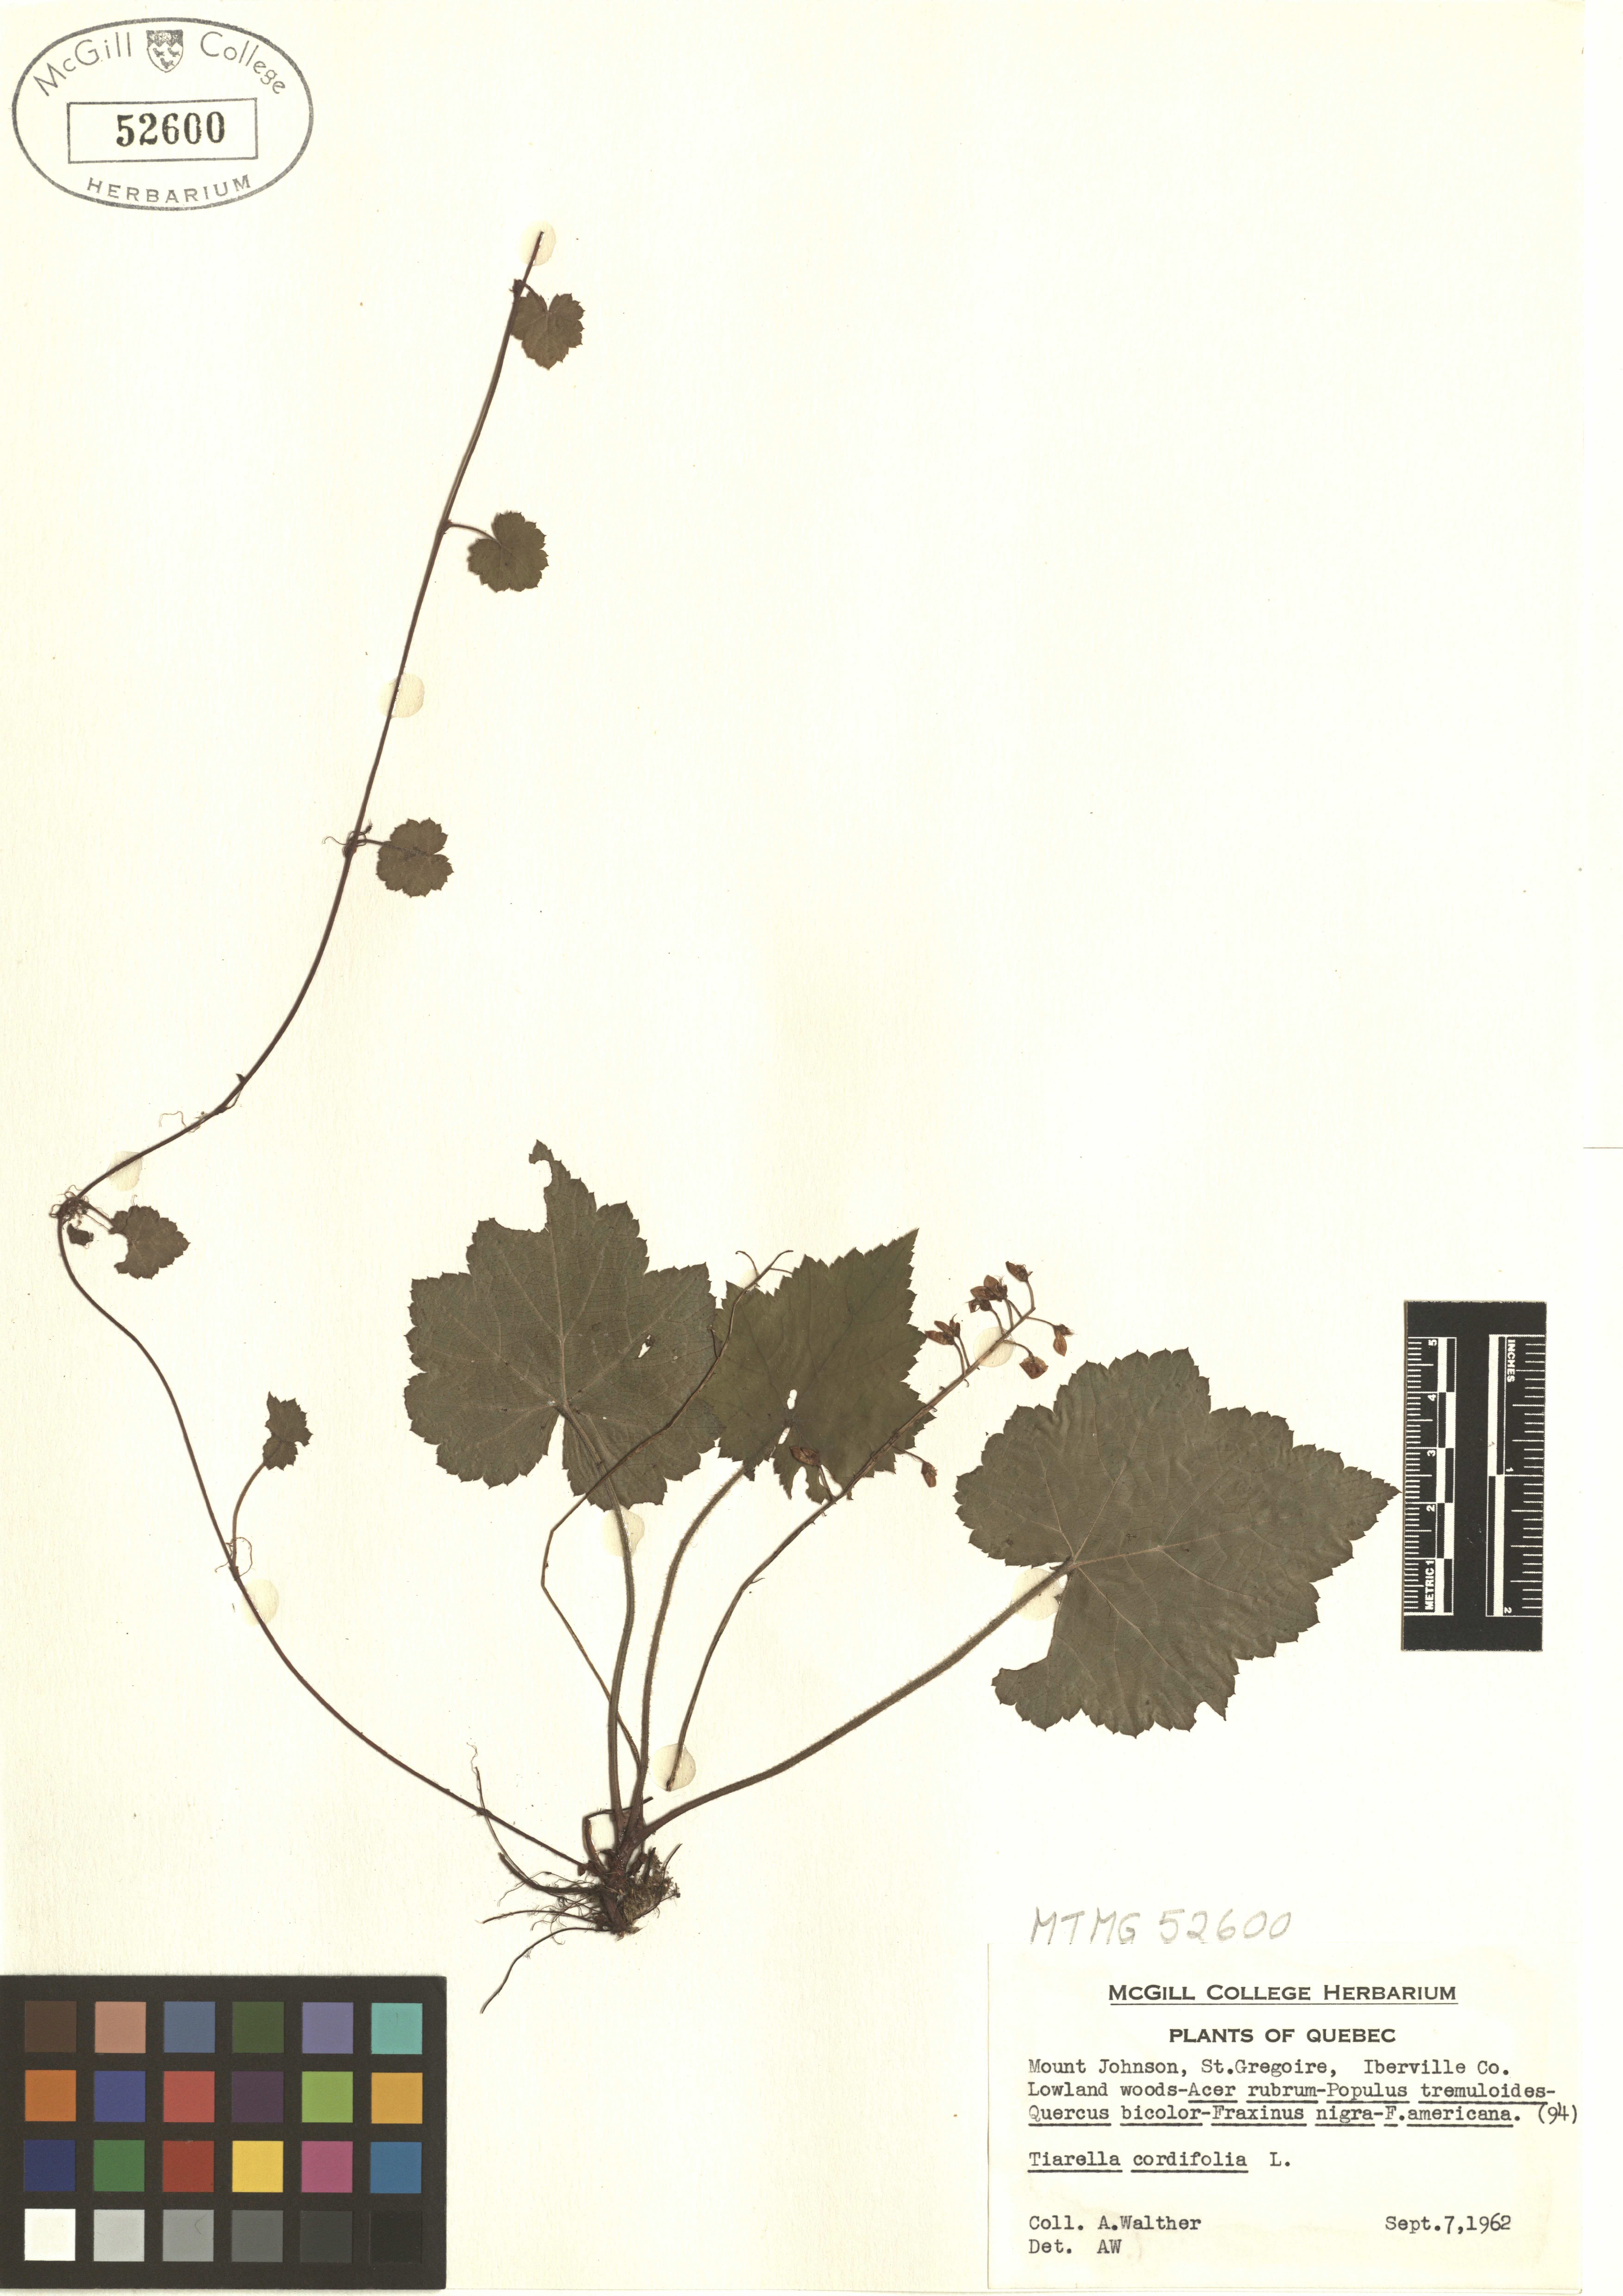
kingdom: Plantae
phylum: Tracheophyta
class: Magnoliopsida
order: Saxifragales
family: Saxifragaceae
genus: Tiarella
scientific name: Tiarella cordifolia
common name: Foamflower
